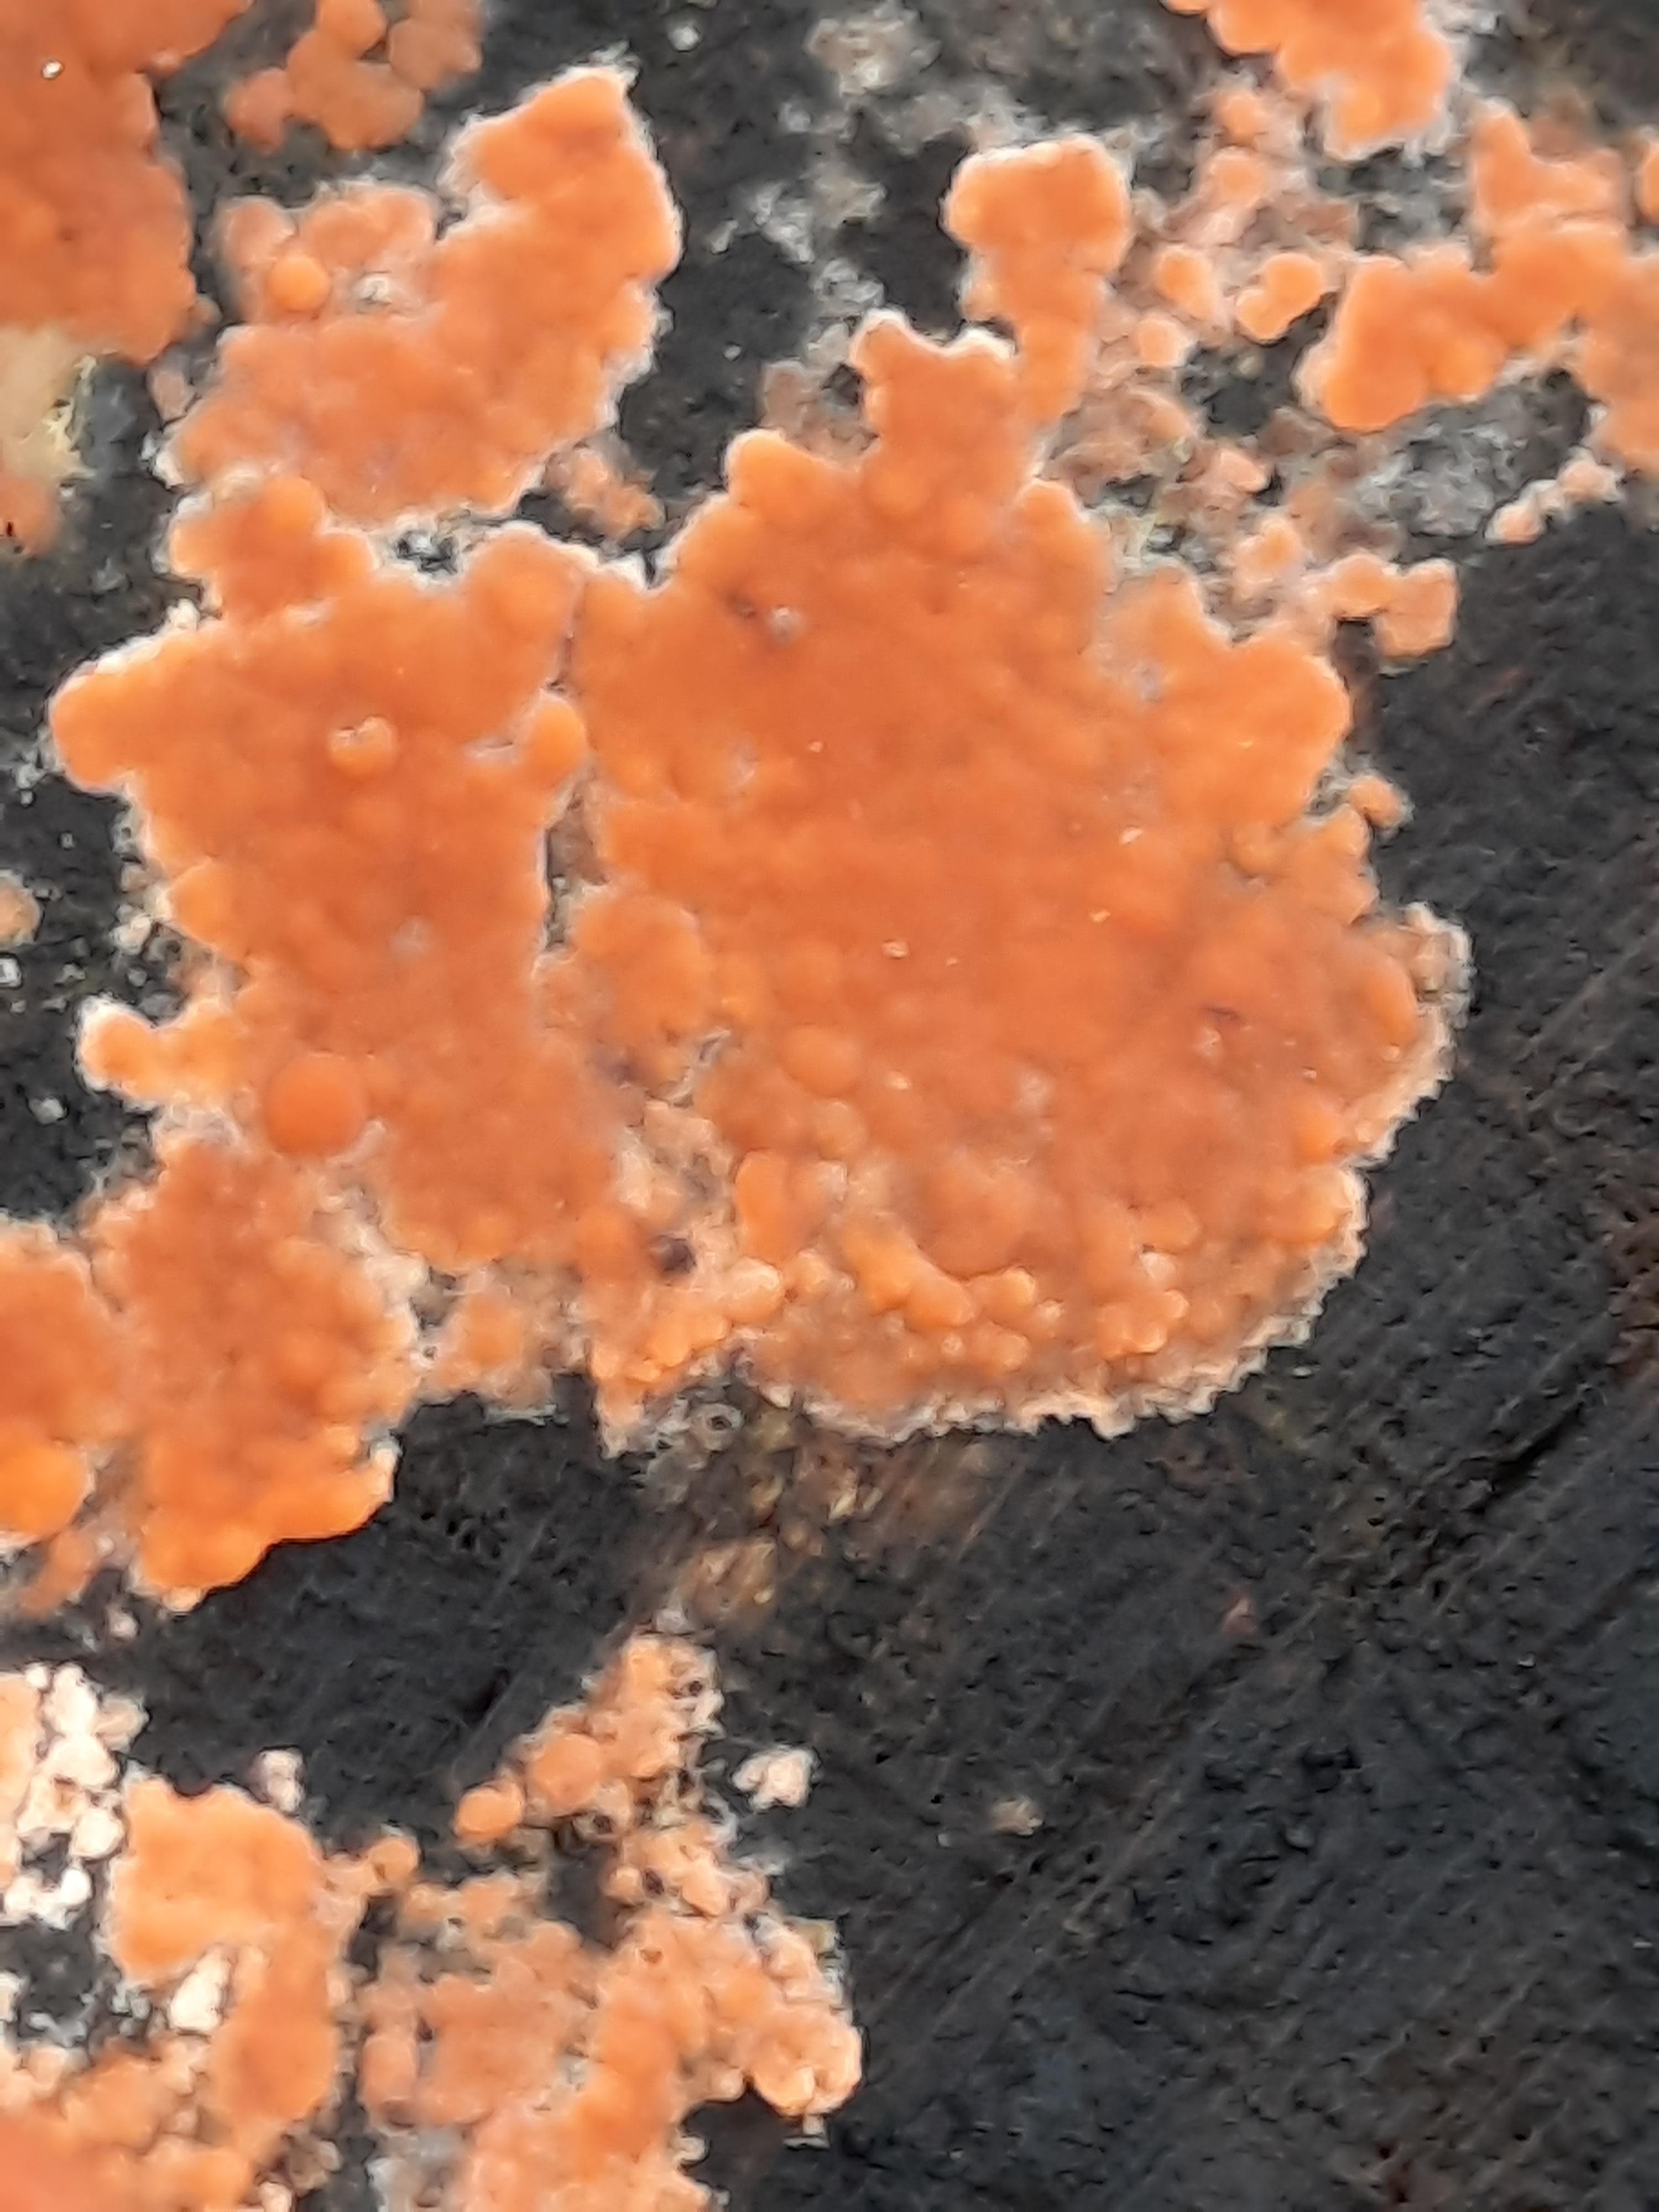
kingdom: Fungi
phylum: Basidiomycota
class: Agaricomycetes
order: Russulales
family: Peniophoraceae
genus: Peniophora
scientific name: Peniophora incarnata
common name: laksefarvet voksskind
